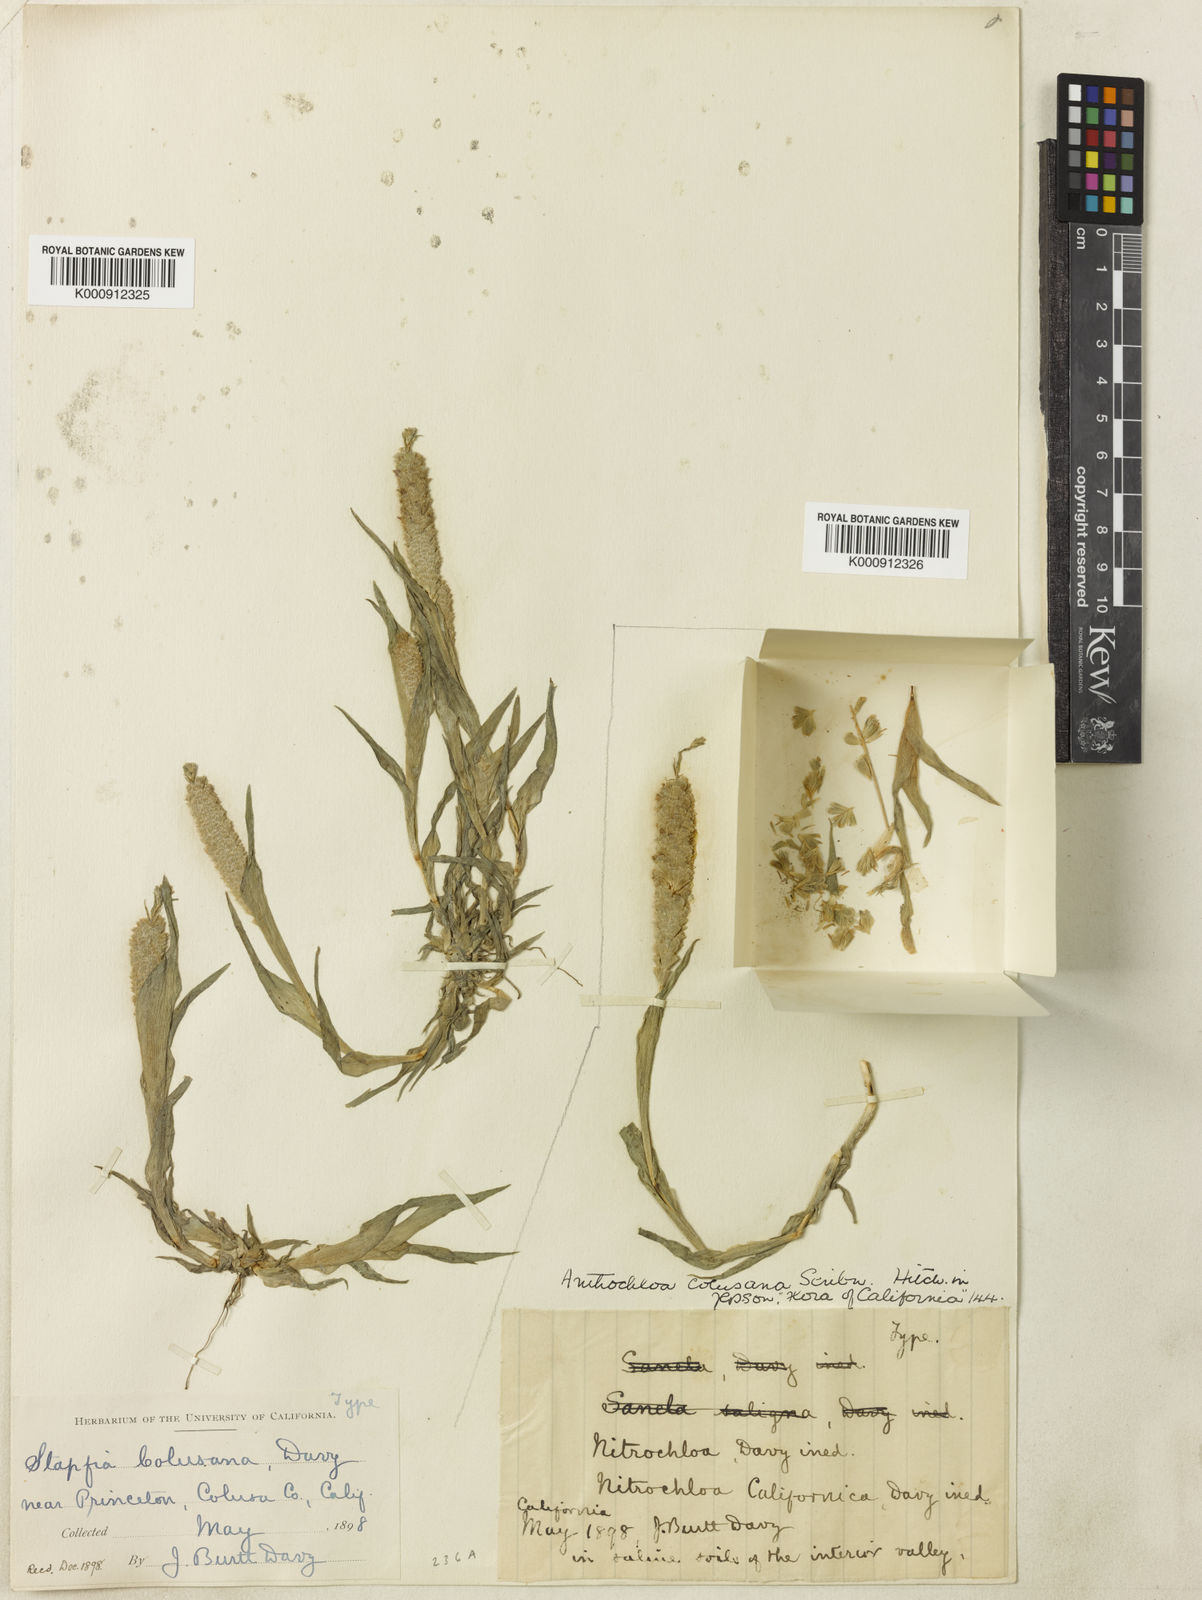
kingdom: Plantae
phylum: Tracheophyta
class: Liliopsida
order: Poales
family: Poaceae
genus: Neostapfia
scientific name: Neostapfia colusana
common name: Colusa grass
